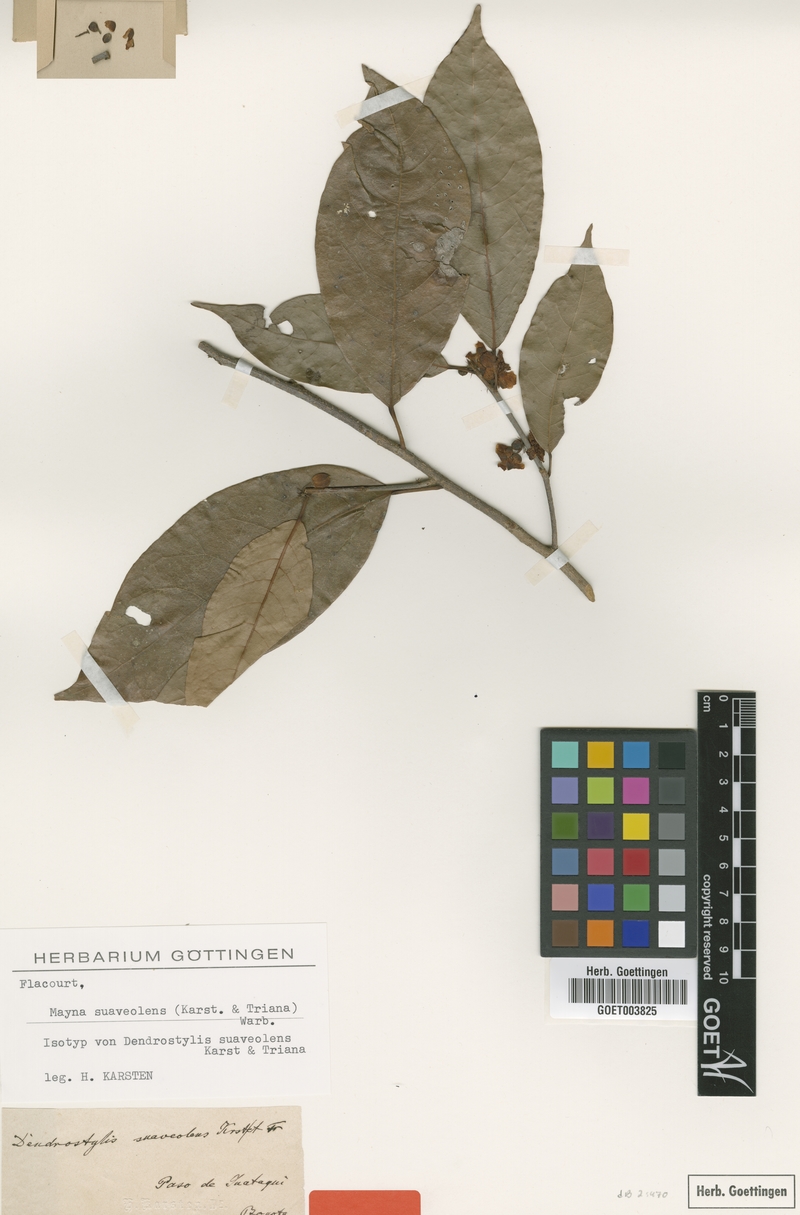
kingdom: Plantae
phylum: Tracheophyta
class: Magnoliopsida
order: Malpighiales
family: Achariaceae
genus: Mayna
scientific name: Mayna suaveolens
